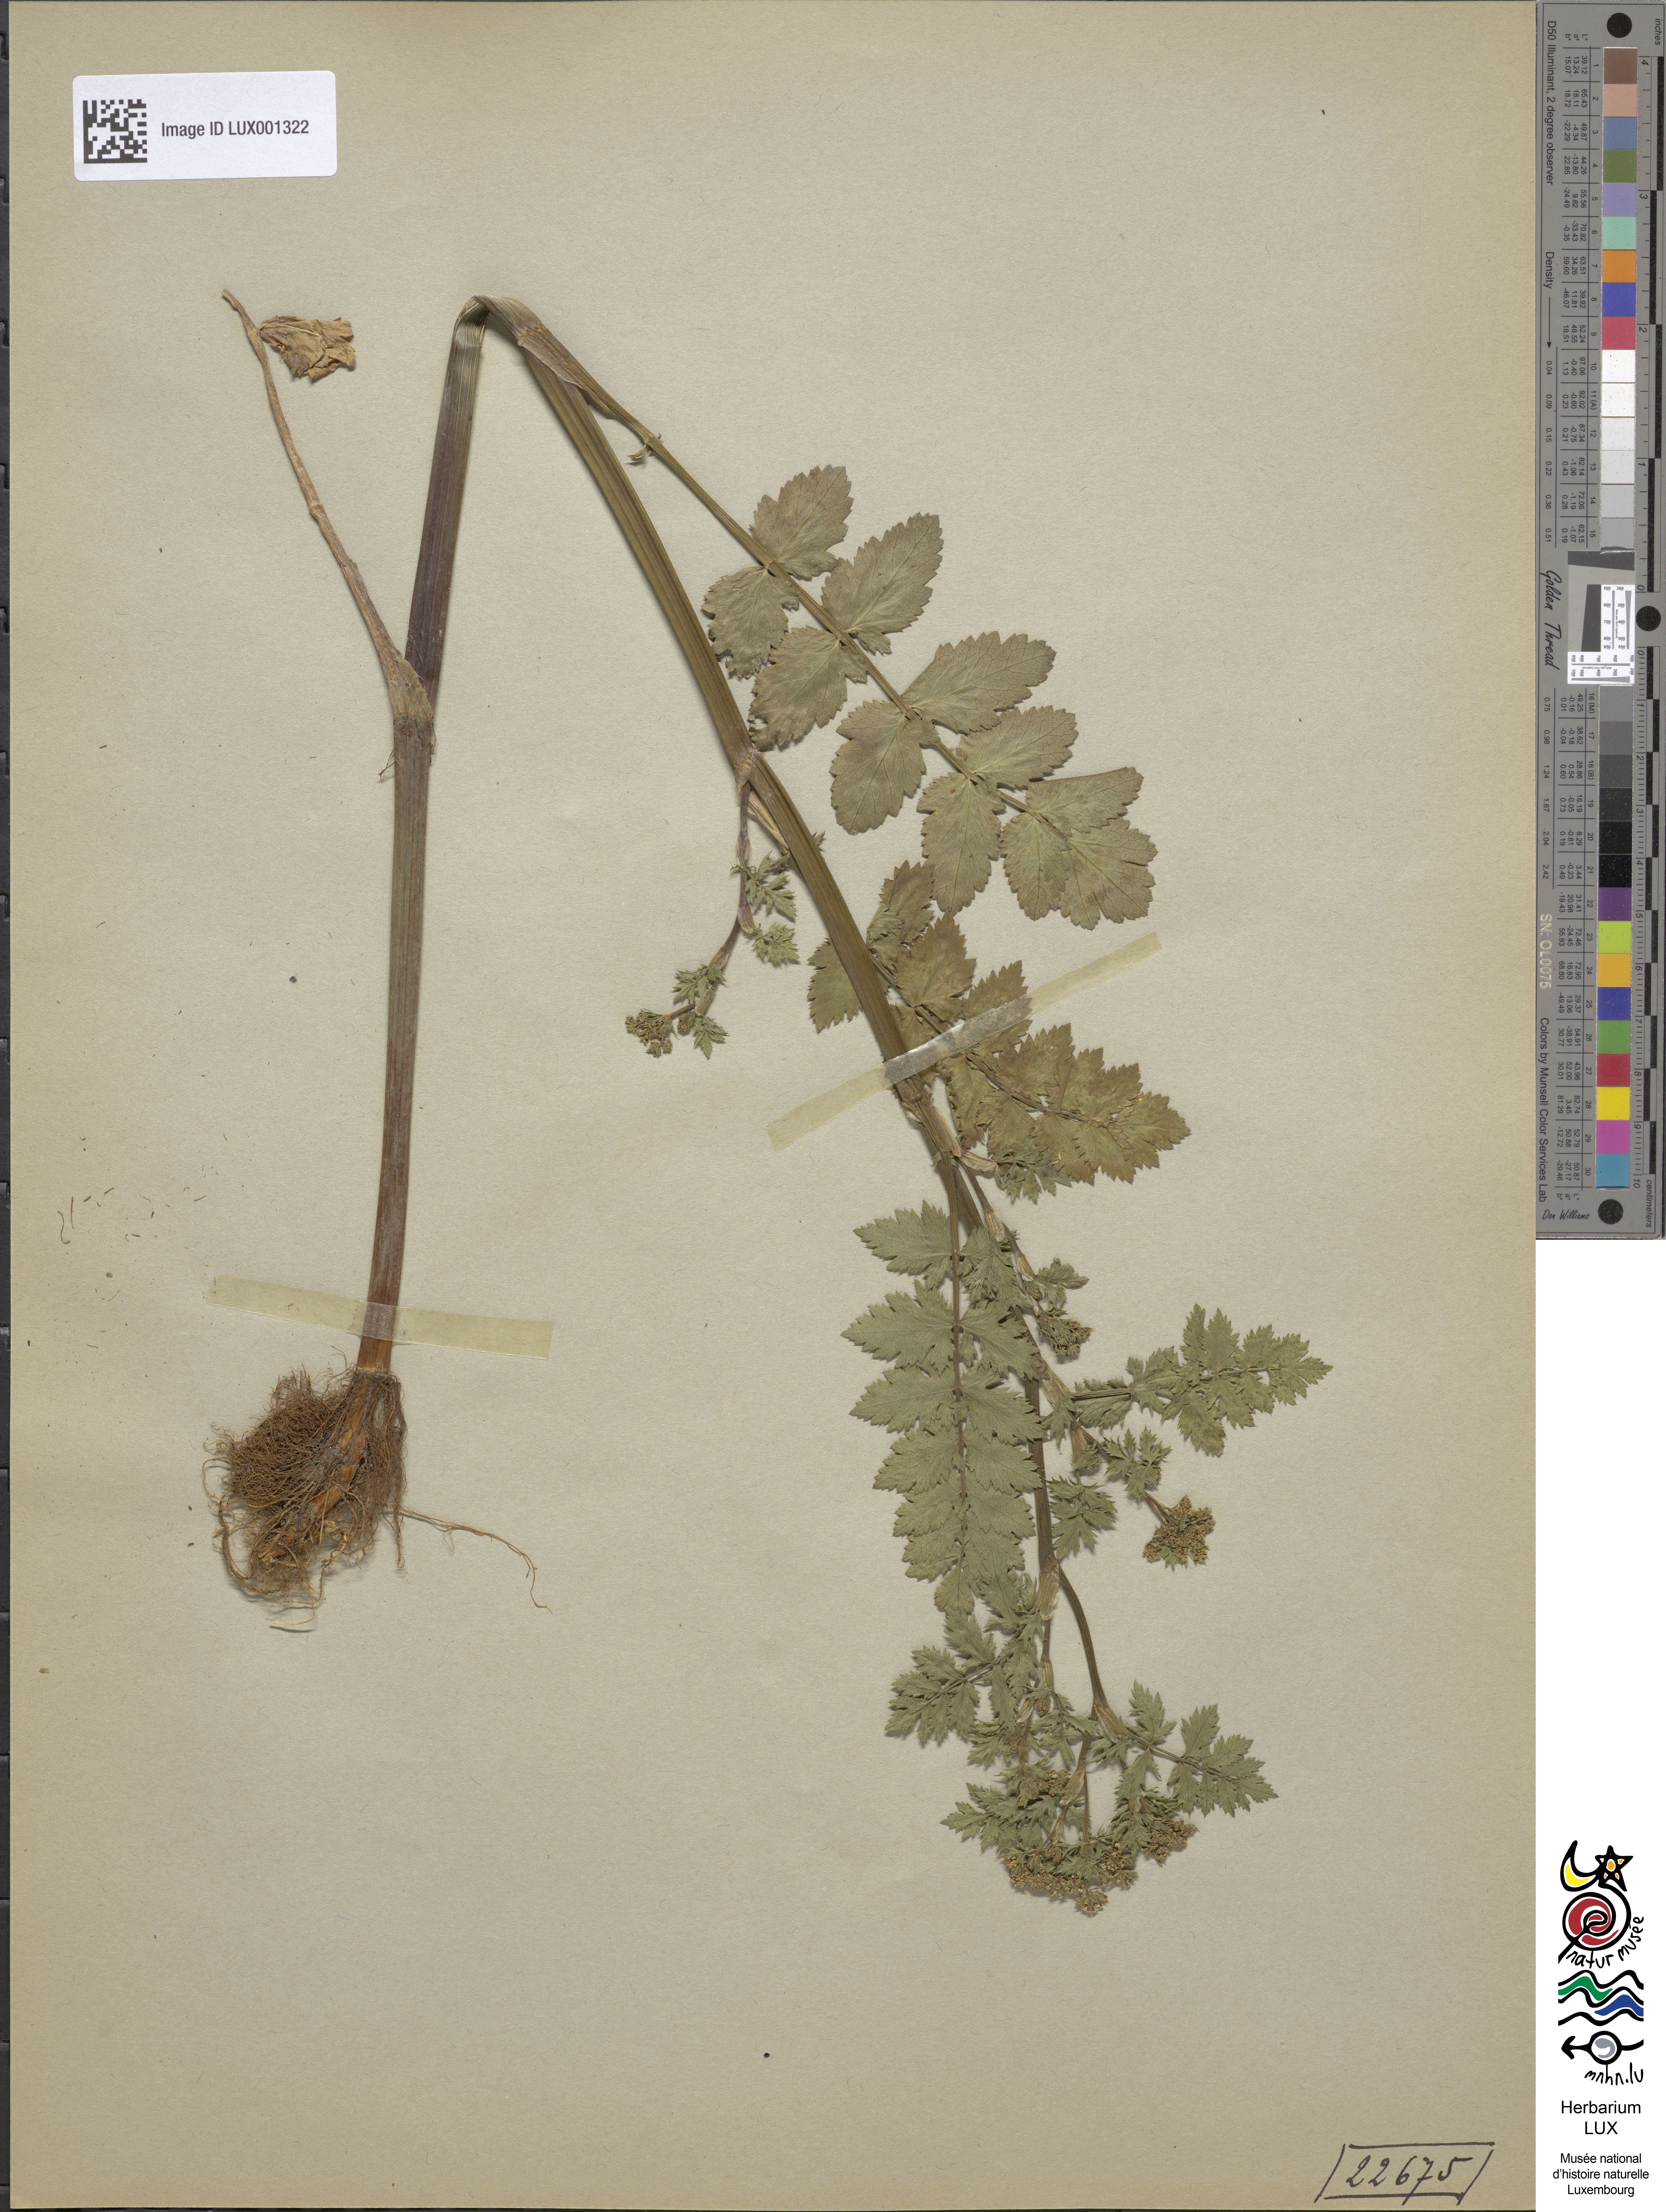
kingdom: Plantae
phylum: Tracheophyta
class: Magnoliopsida
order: Apiales
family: Apiaceae
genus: Berula
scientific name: Berula erecta
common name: Lesser water-parsnip
